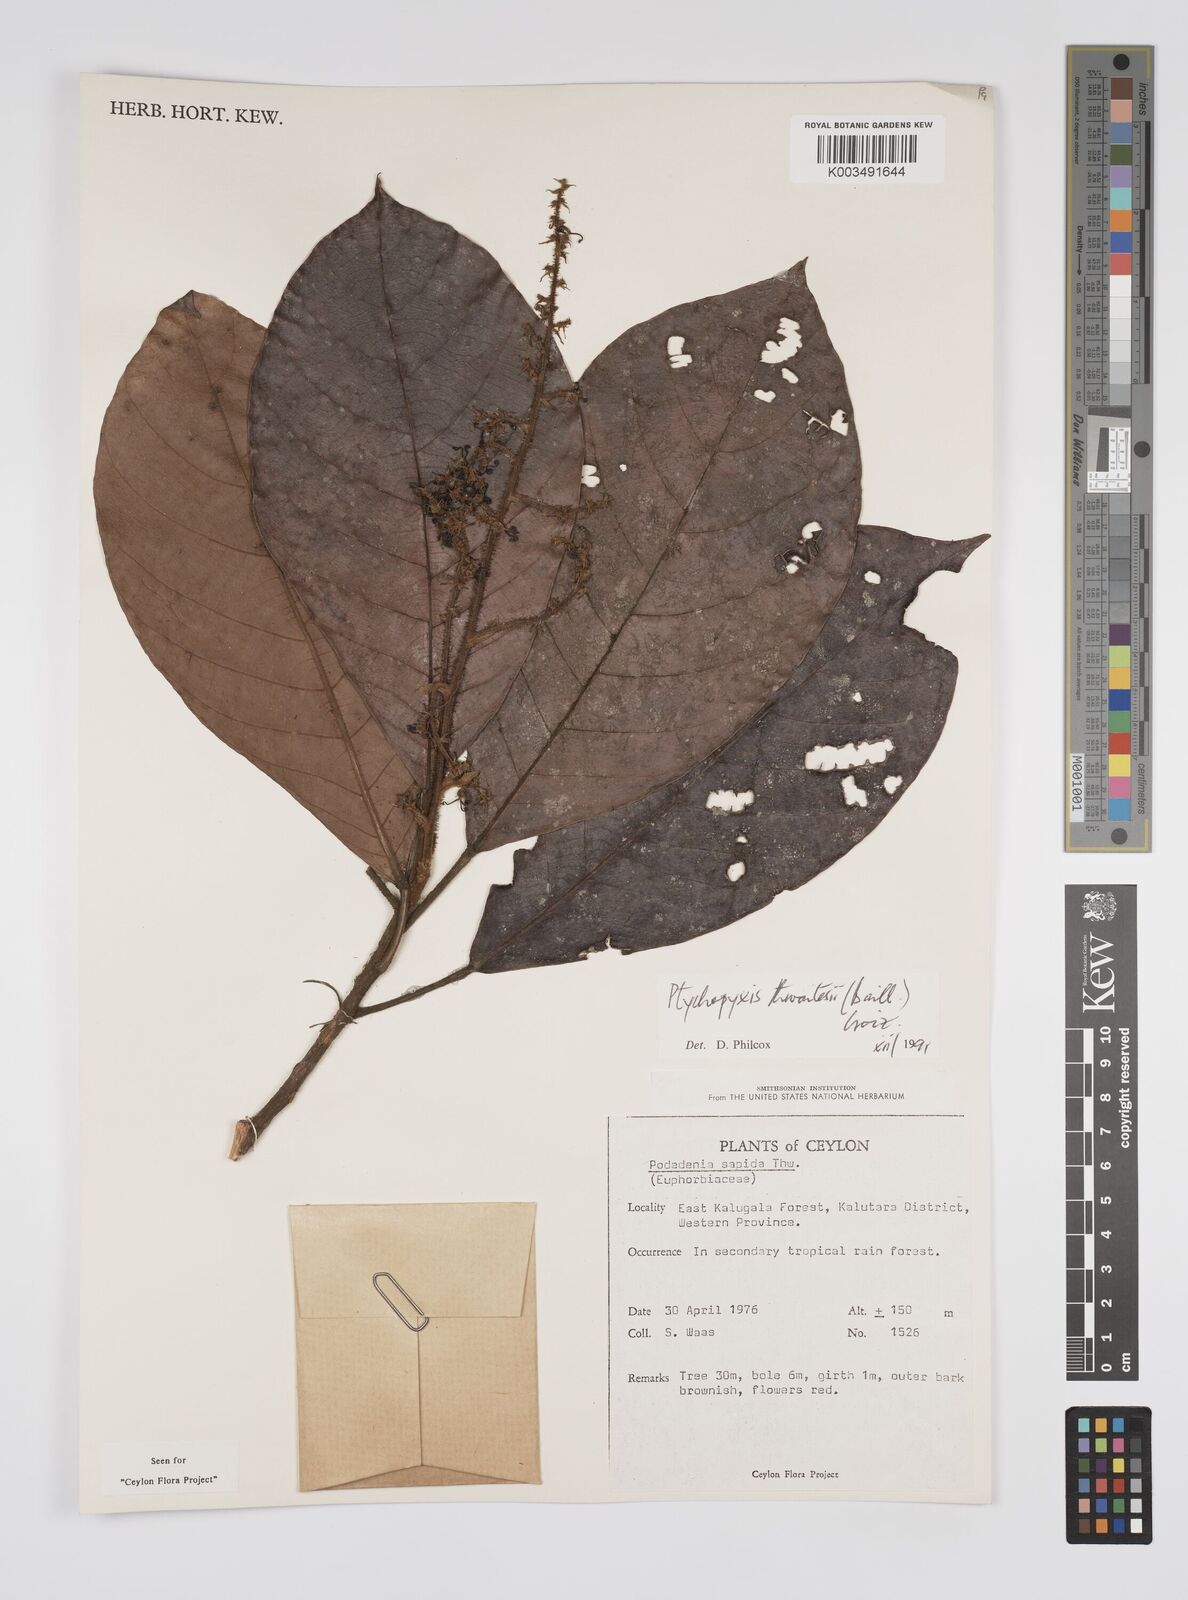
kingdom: Plantae
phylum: Tracheophyta
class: Magnoliopsida
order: Malpighiales
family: Euphorbiaceae
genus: Podadenia
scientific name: Podadenia sapida
